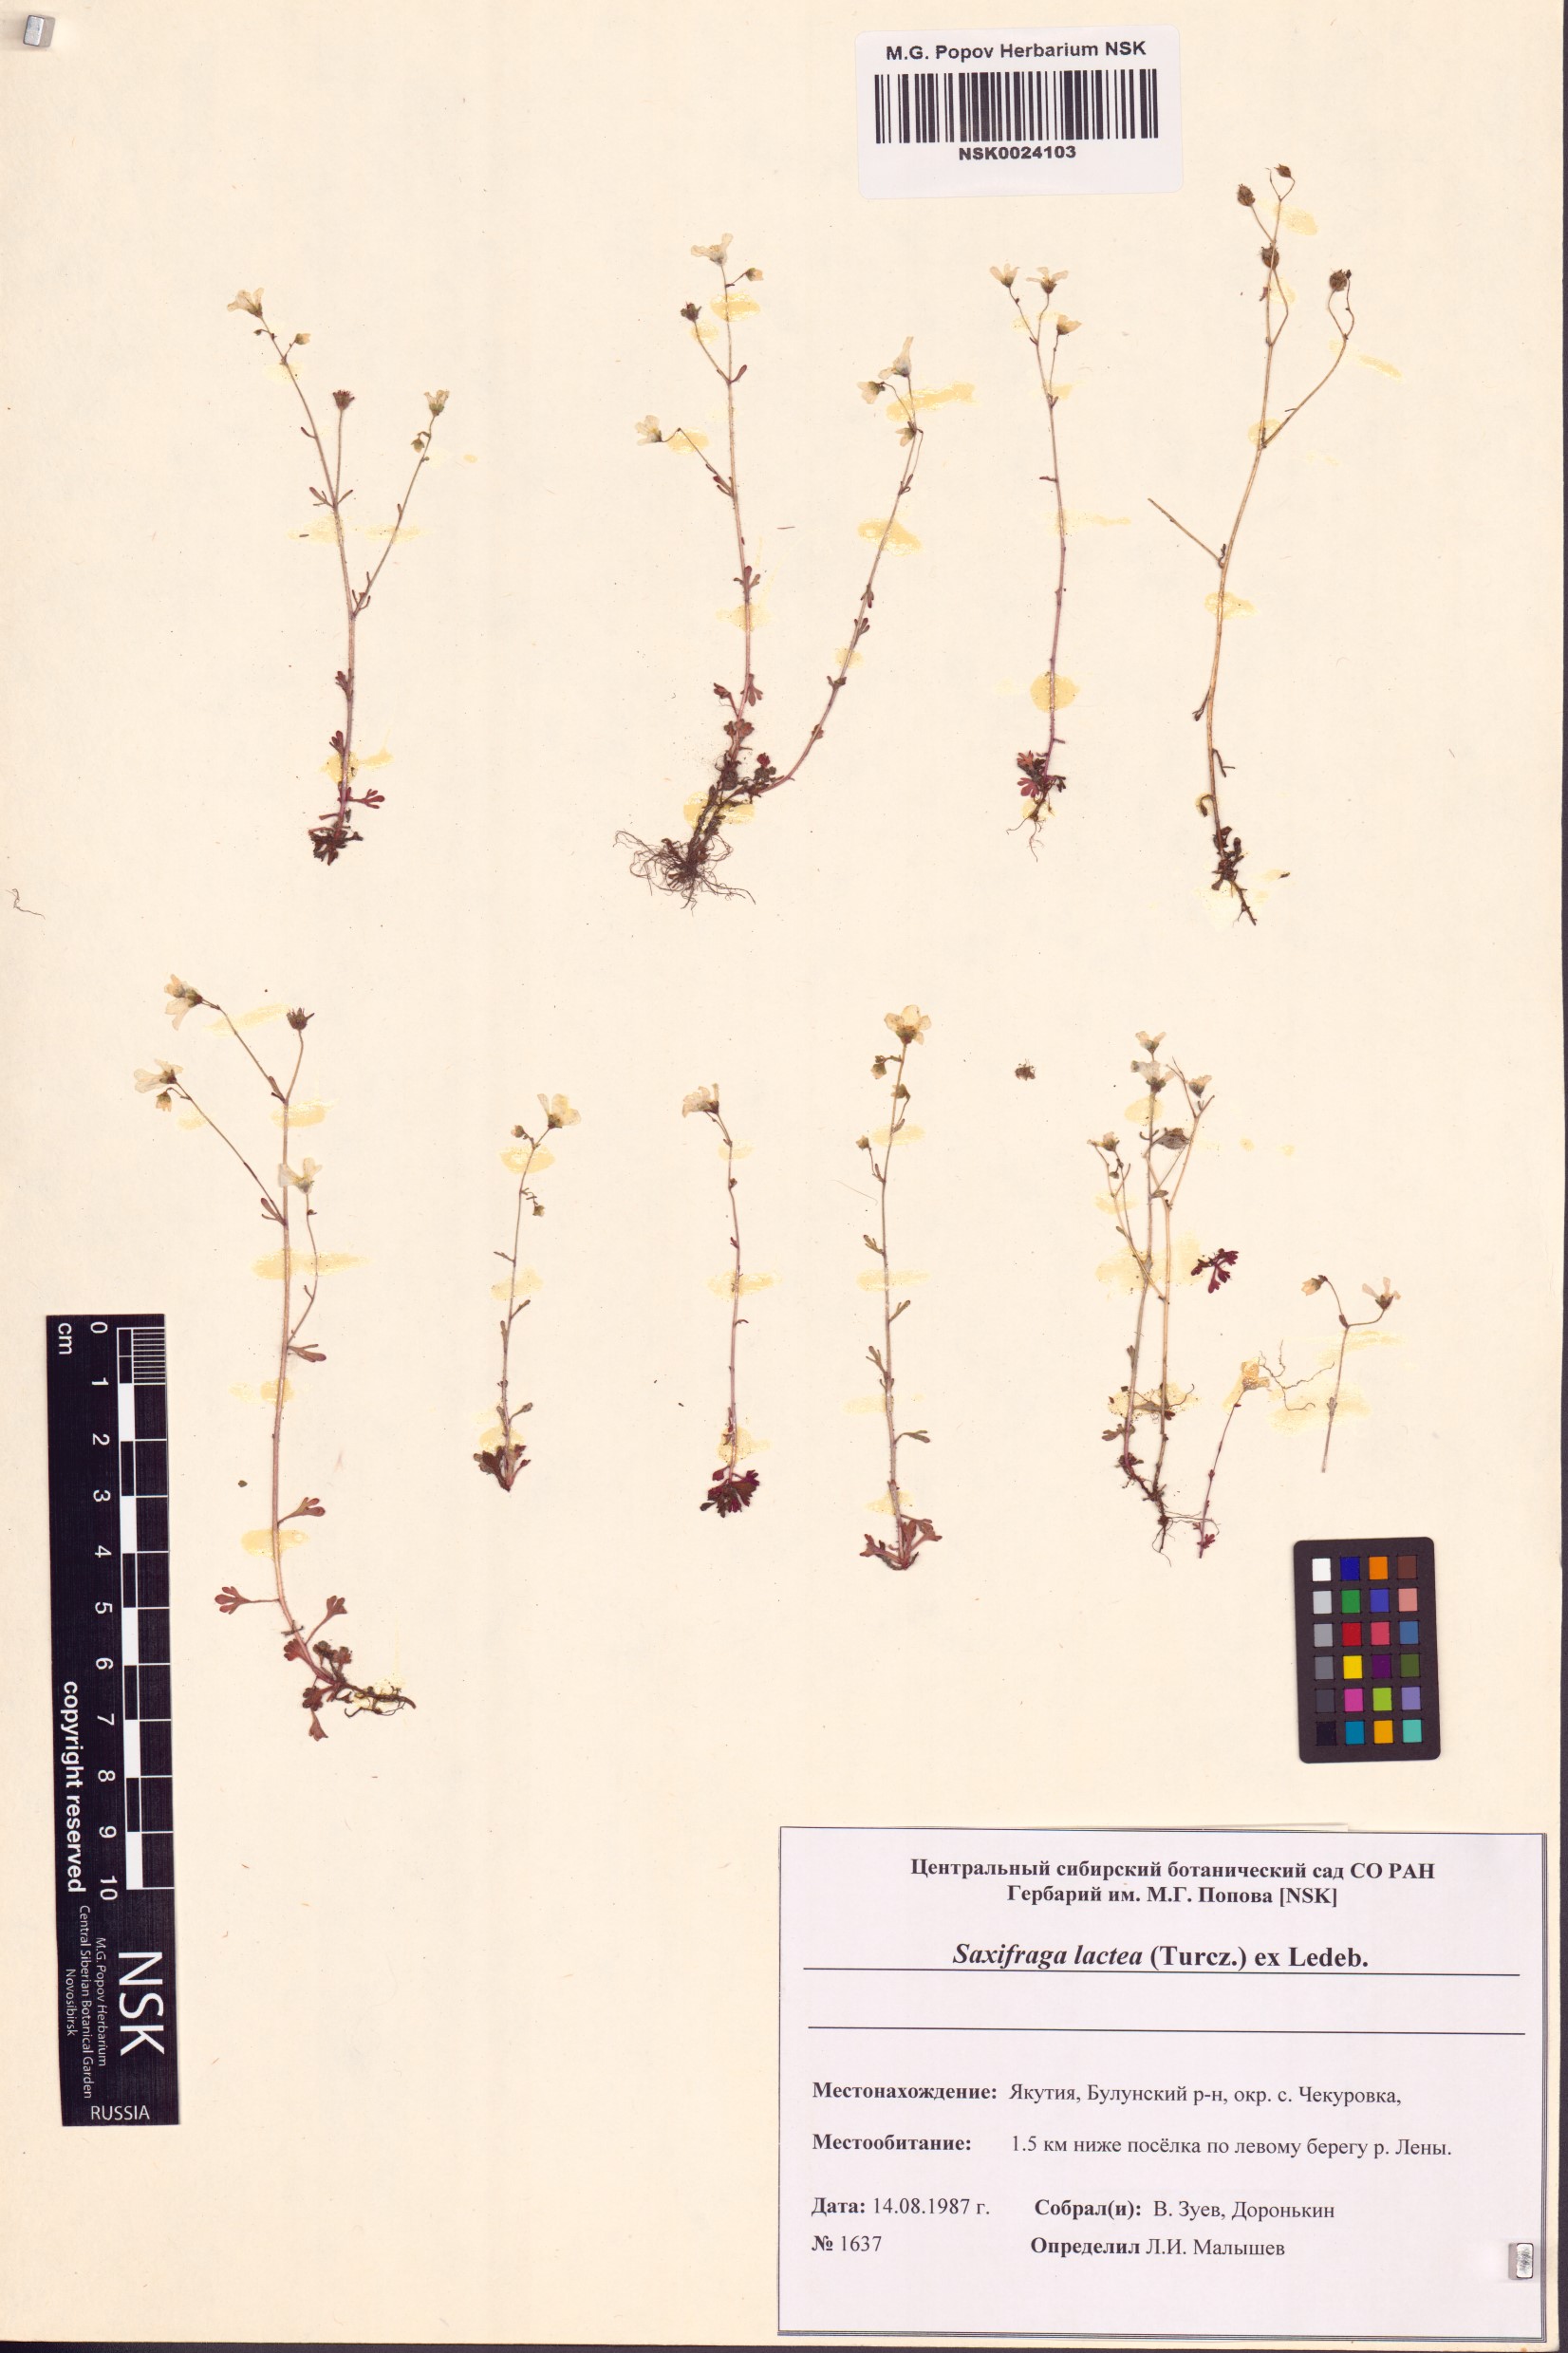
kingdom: Plantae
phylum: Tracheophyta
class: Magnoliopsida
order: Saxifragales
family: Saxifragaceae
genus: Saxifraga
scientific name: Saxifraga lactea
